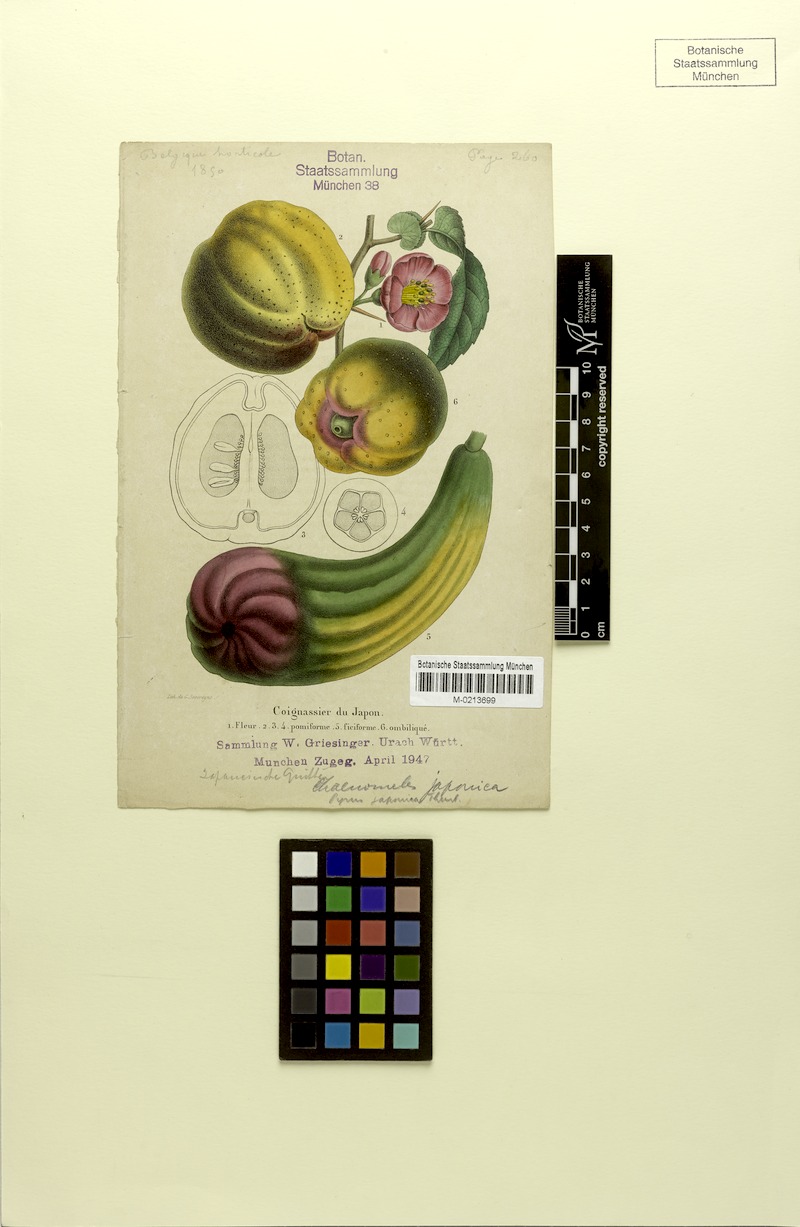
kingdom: Plantae
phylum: Tracheophyta
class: Magnoliopsida
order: Rosales
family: Rosaceae
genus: Chaenomeles
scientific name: Chaenomeles japonica
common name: Japanese quince
